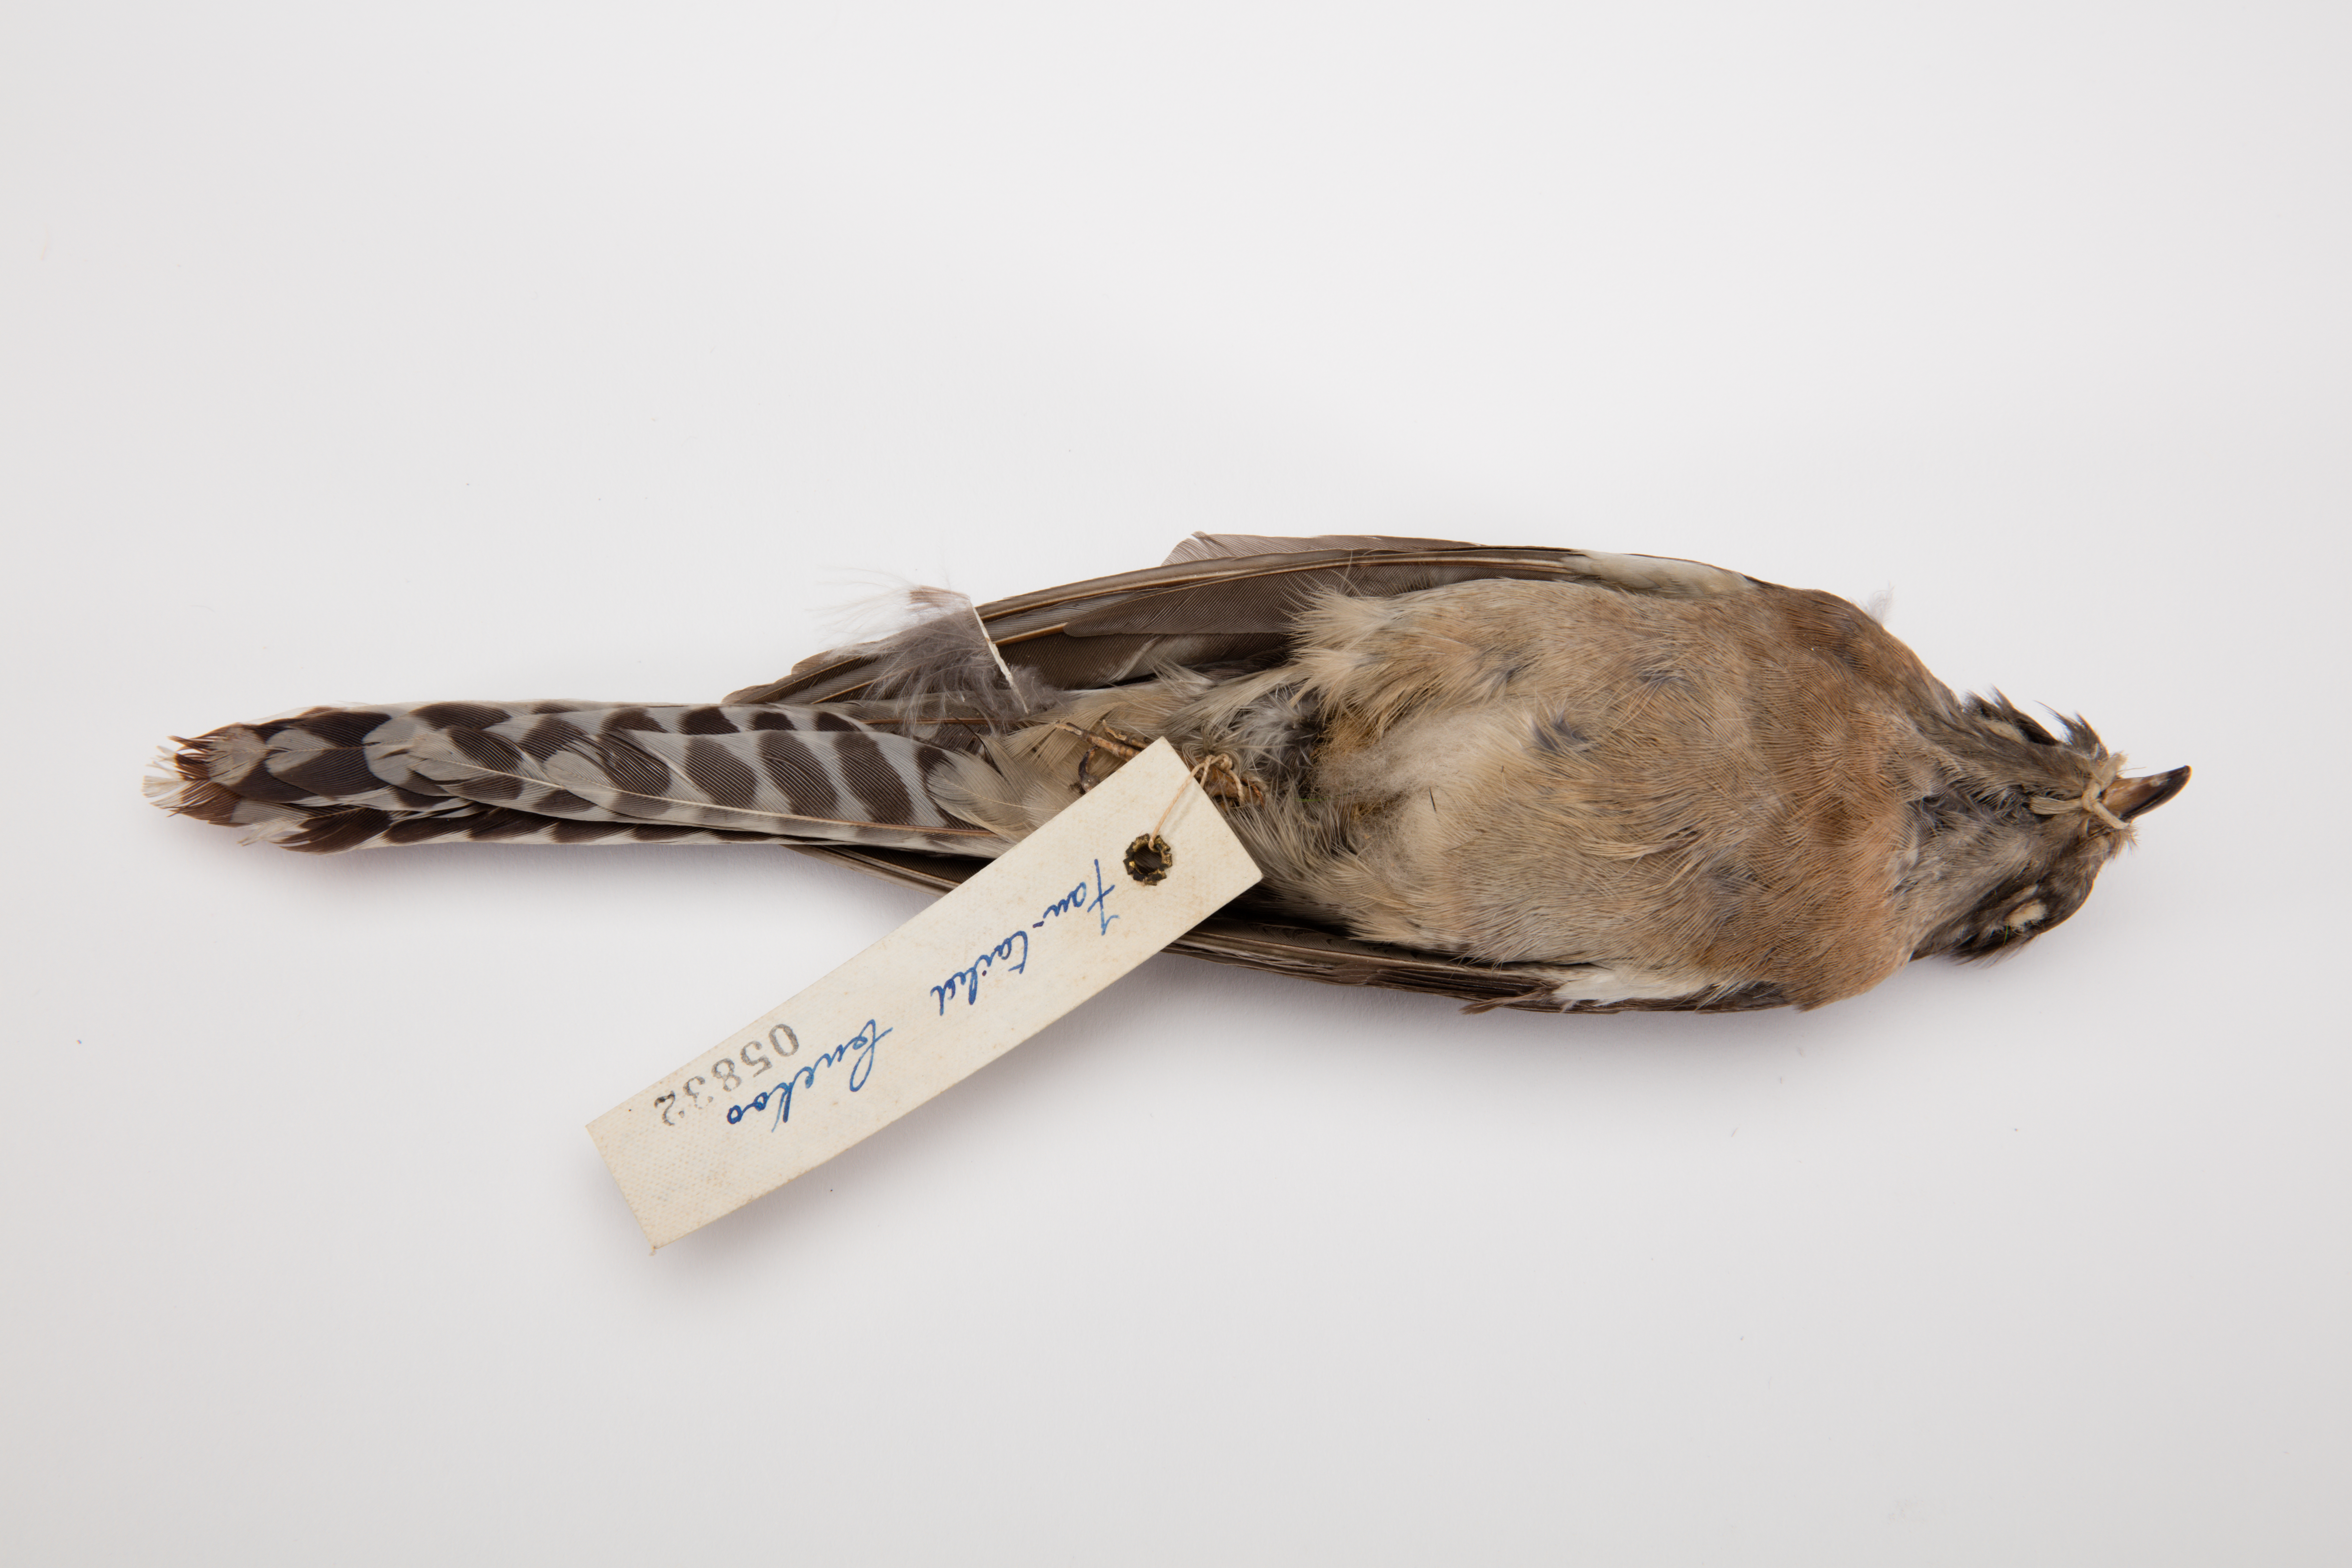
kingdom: Animalia
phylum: Chordata
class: Aves
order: Cuculiformes
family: Cuculidae
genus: Cacomantis
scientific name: Cacomantis flabelliformis
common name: Fan-tailed cuckoo
